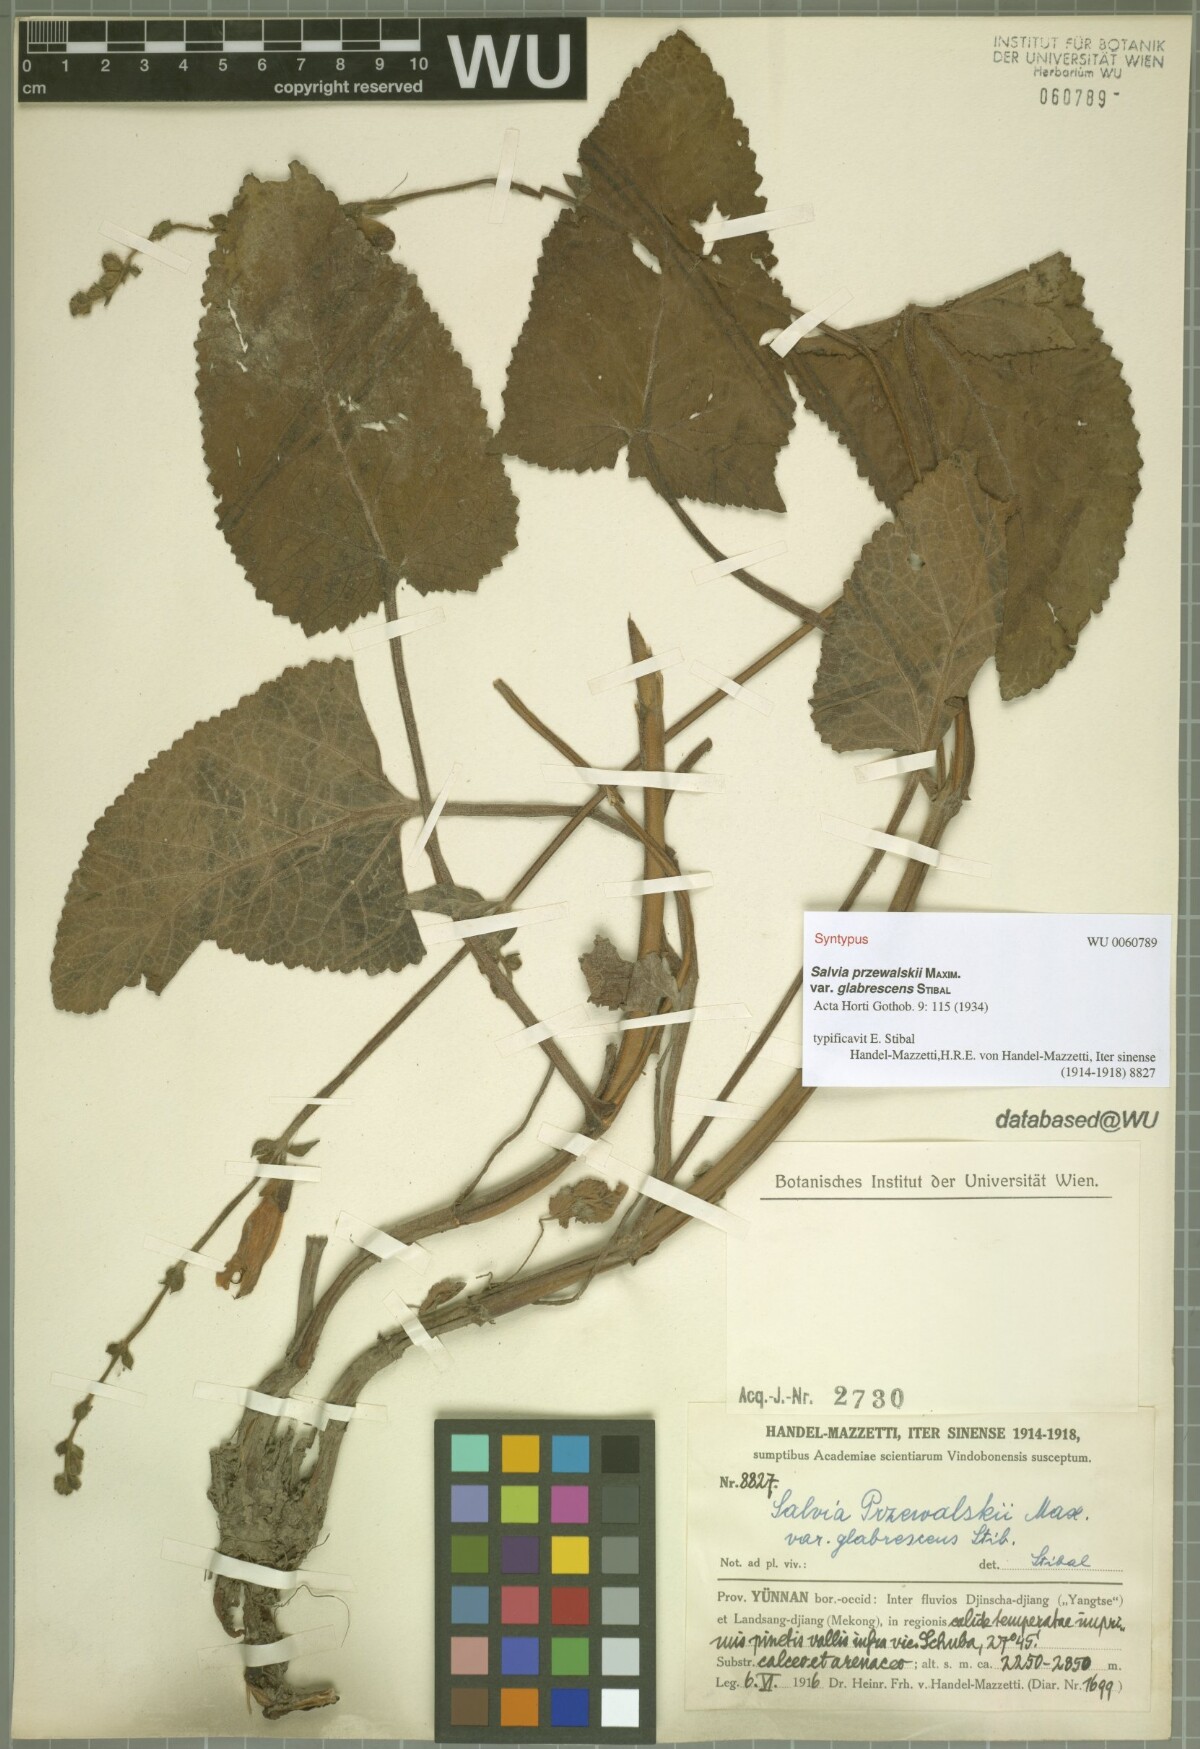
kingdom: Plantae
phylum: Tracheophyta
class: Magnoliopsida
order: Lamiales
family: Lamiaceae
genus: Salvia
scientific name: Salvia przewalskii
